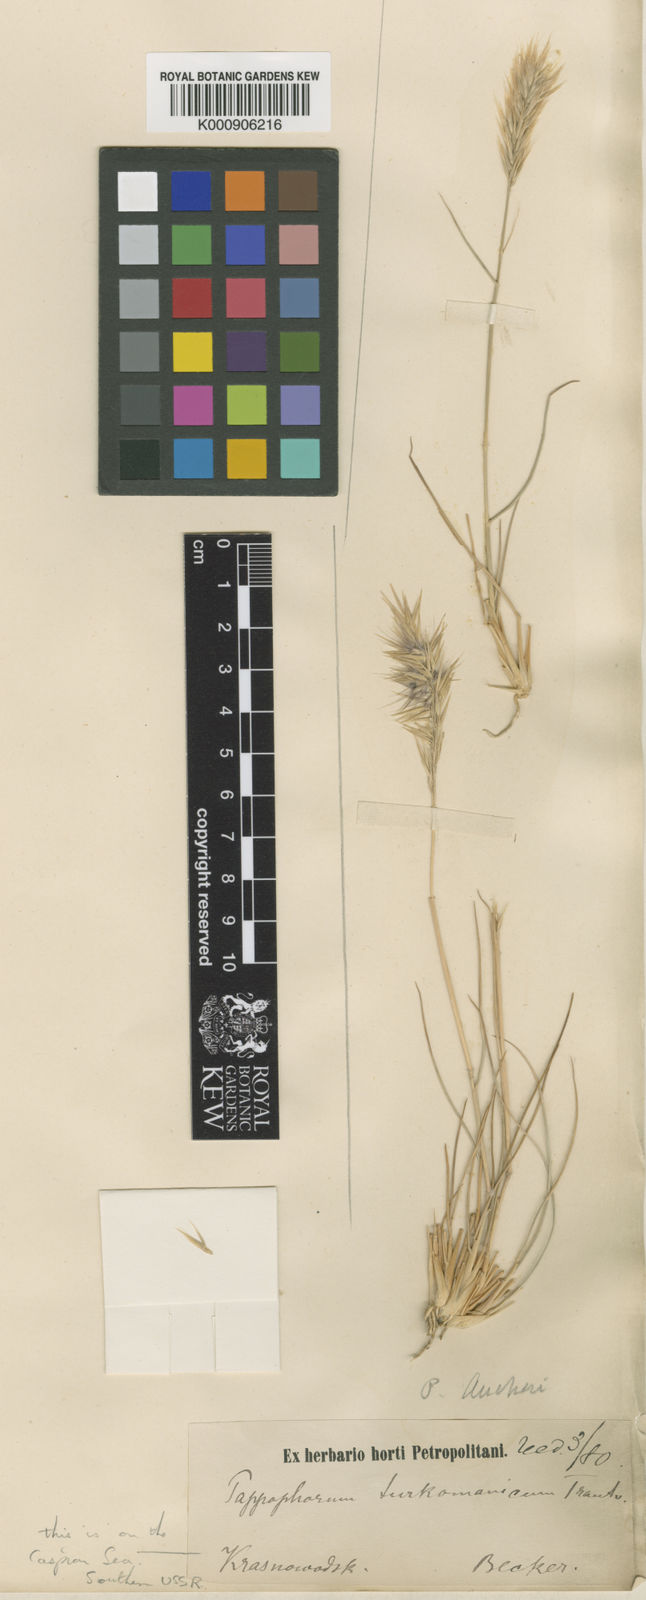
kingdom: Plantae
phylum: Tracheophyta
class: Liliopsida
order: Poales
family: Poaceae
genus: Enneapogon
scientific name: Enneapogon persicus
